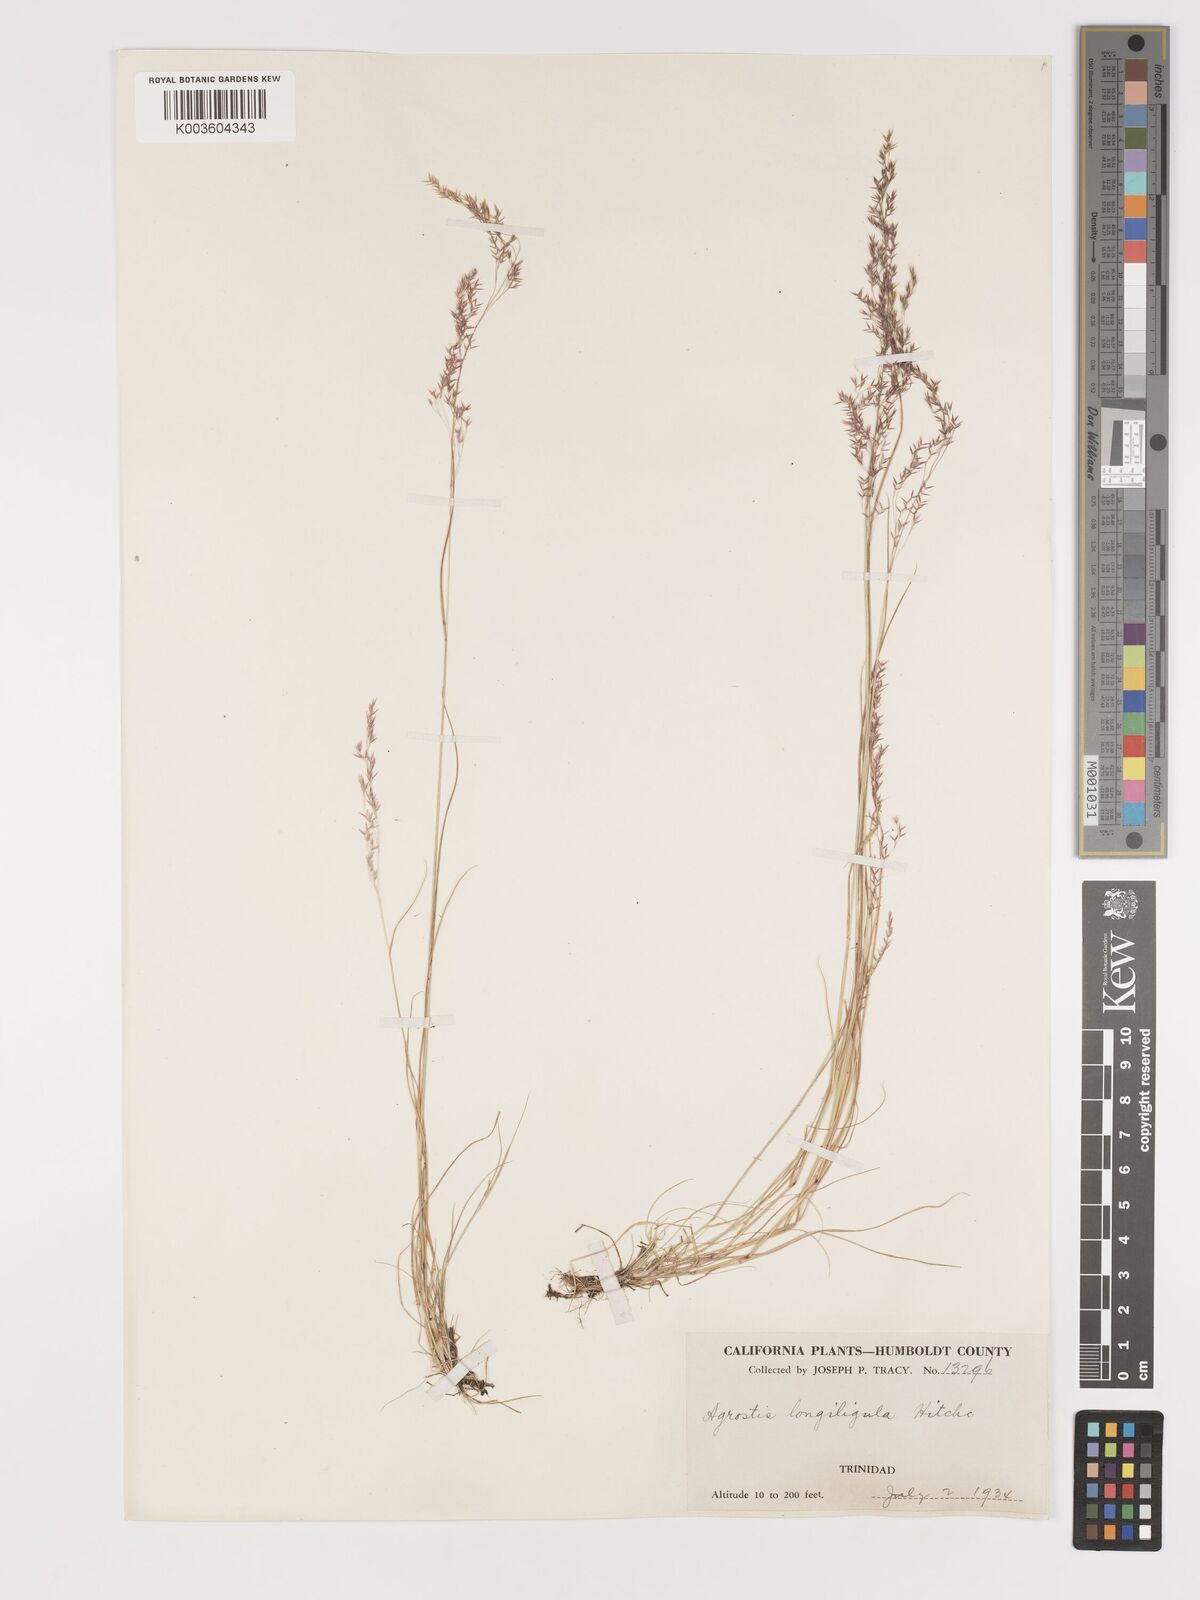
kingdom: Plantae
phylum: Tracheophyta
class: Liliopsida
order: Poales
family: Poaceae
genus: Agrostis
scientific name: Agrostis exarata
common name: Spike bent
